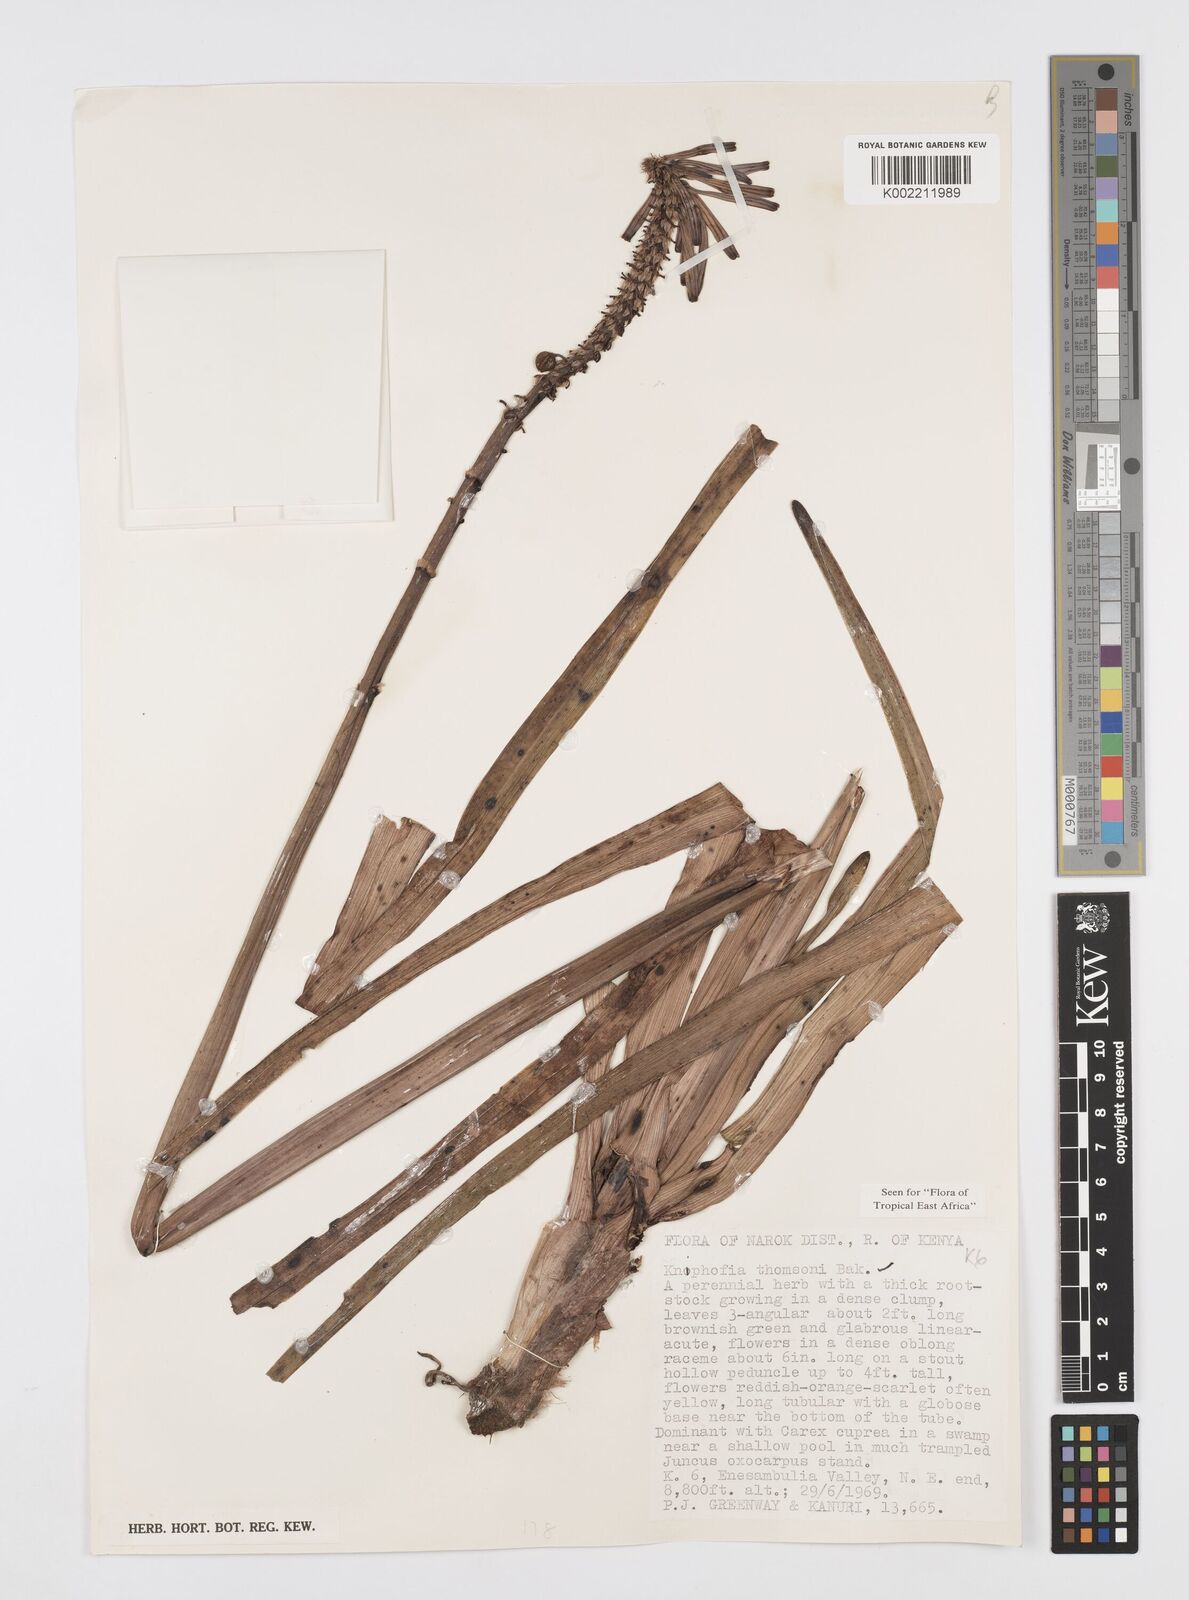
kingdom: Plantae
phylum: Tracheophyta
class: Liliopsida
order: Asparagales
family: Asphodelaceae
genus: Kniphofia
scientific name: Kniphofia thomsonii
